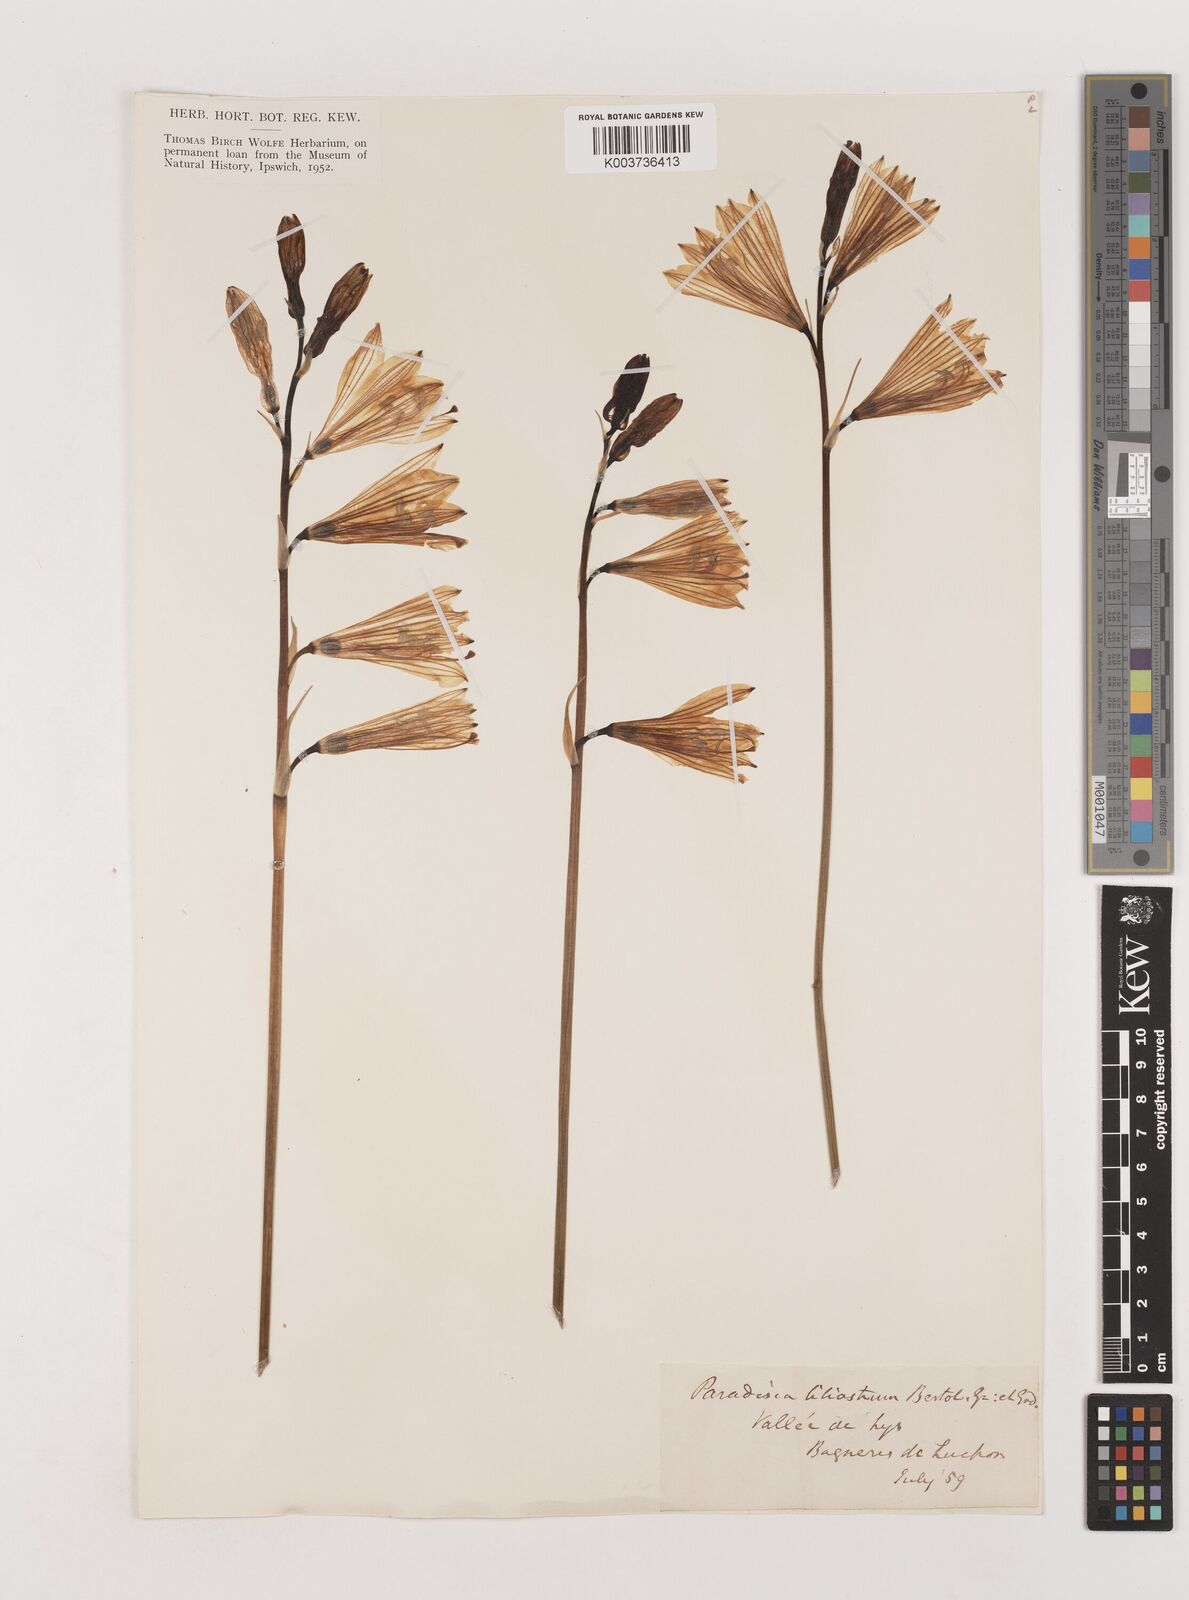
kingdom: Plantae
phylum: Tracheophyta
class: Liliopsida
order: Asparagales
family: Asparagaceae
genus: Paradisea
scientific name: Paradisea liliastrum
